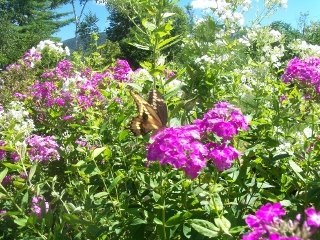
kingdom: Animalia
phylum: Arthropoda
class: Insecta
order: Lepidoptera
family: Papilionidae
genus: Papilio
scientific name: Papilio cresphontes
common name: Eastern Giant Swallowtail
